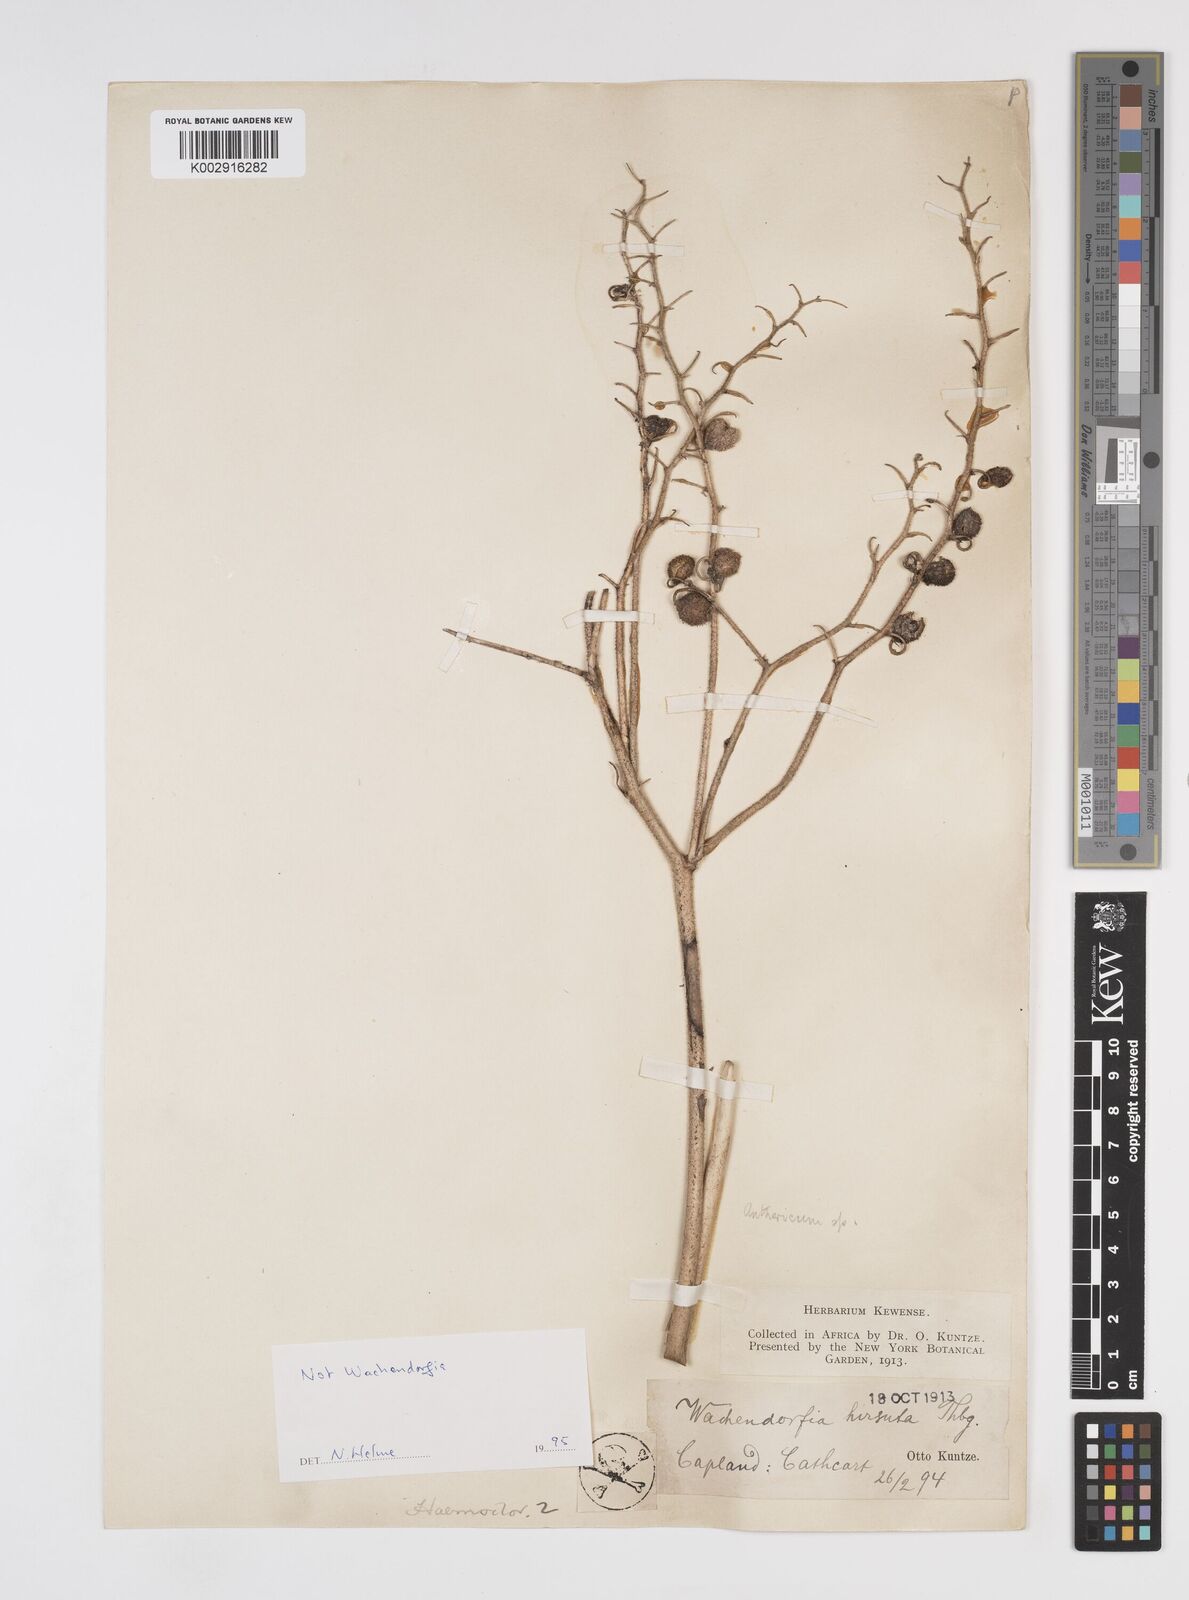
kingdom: Plantae
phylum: Tracheophyta
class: Liliopsida
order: Commelinales
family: Haemodoraceae
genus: Wachendorfia
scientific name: Wachendorfia paniculata
